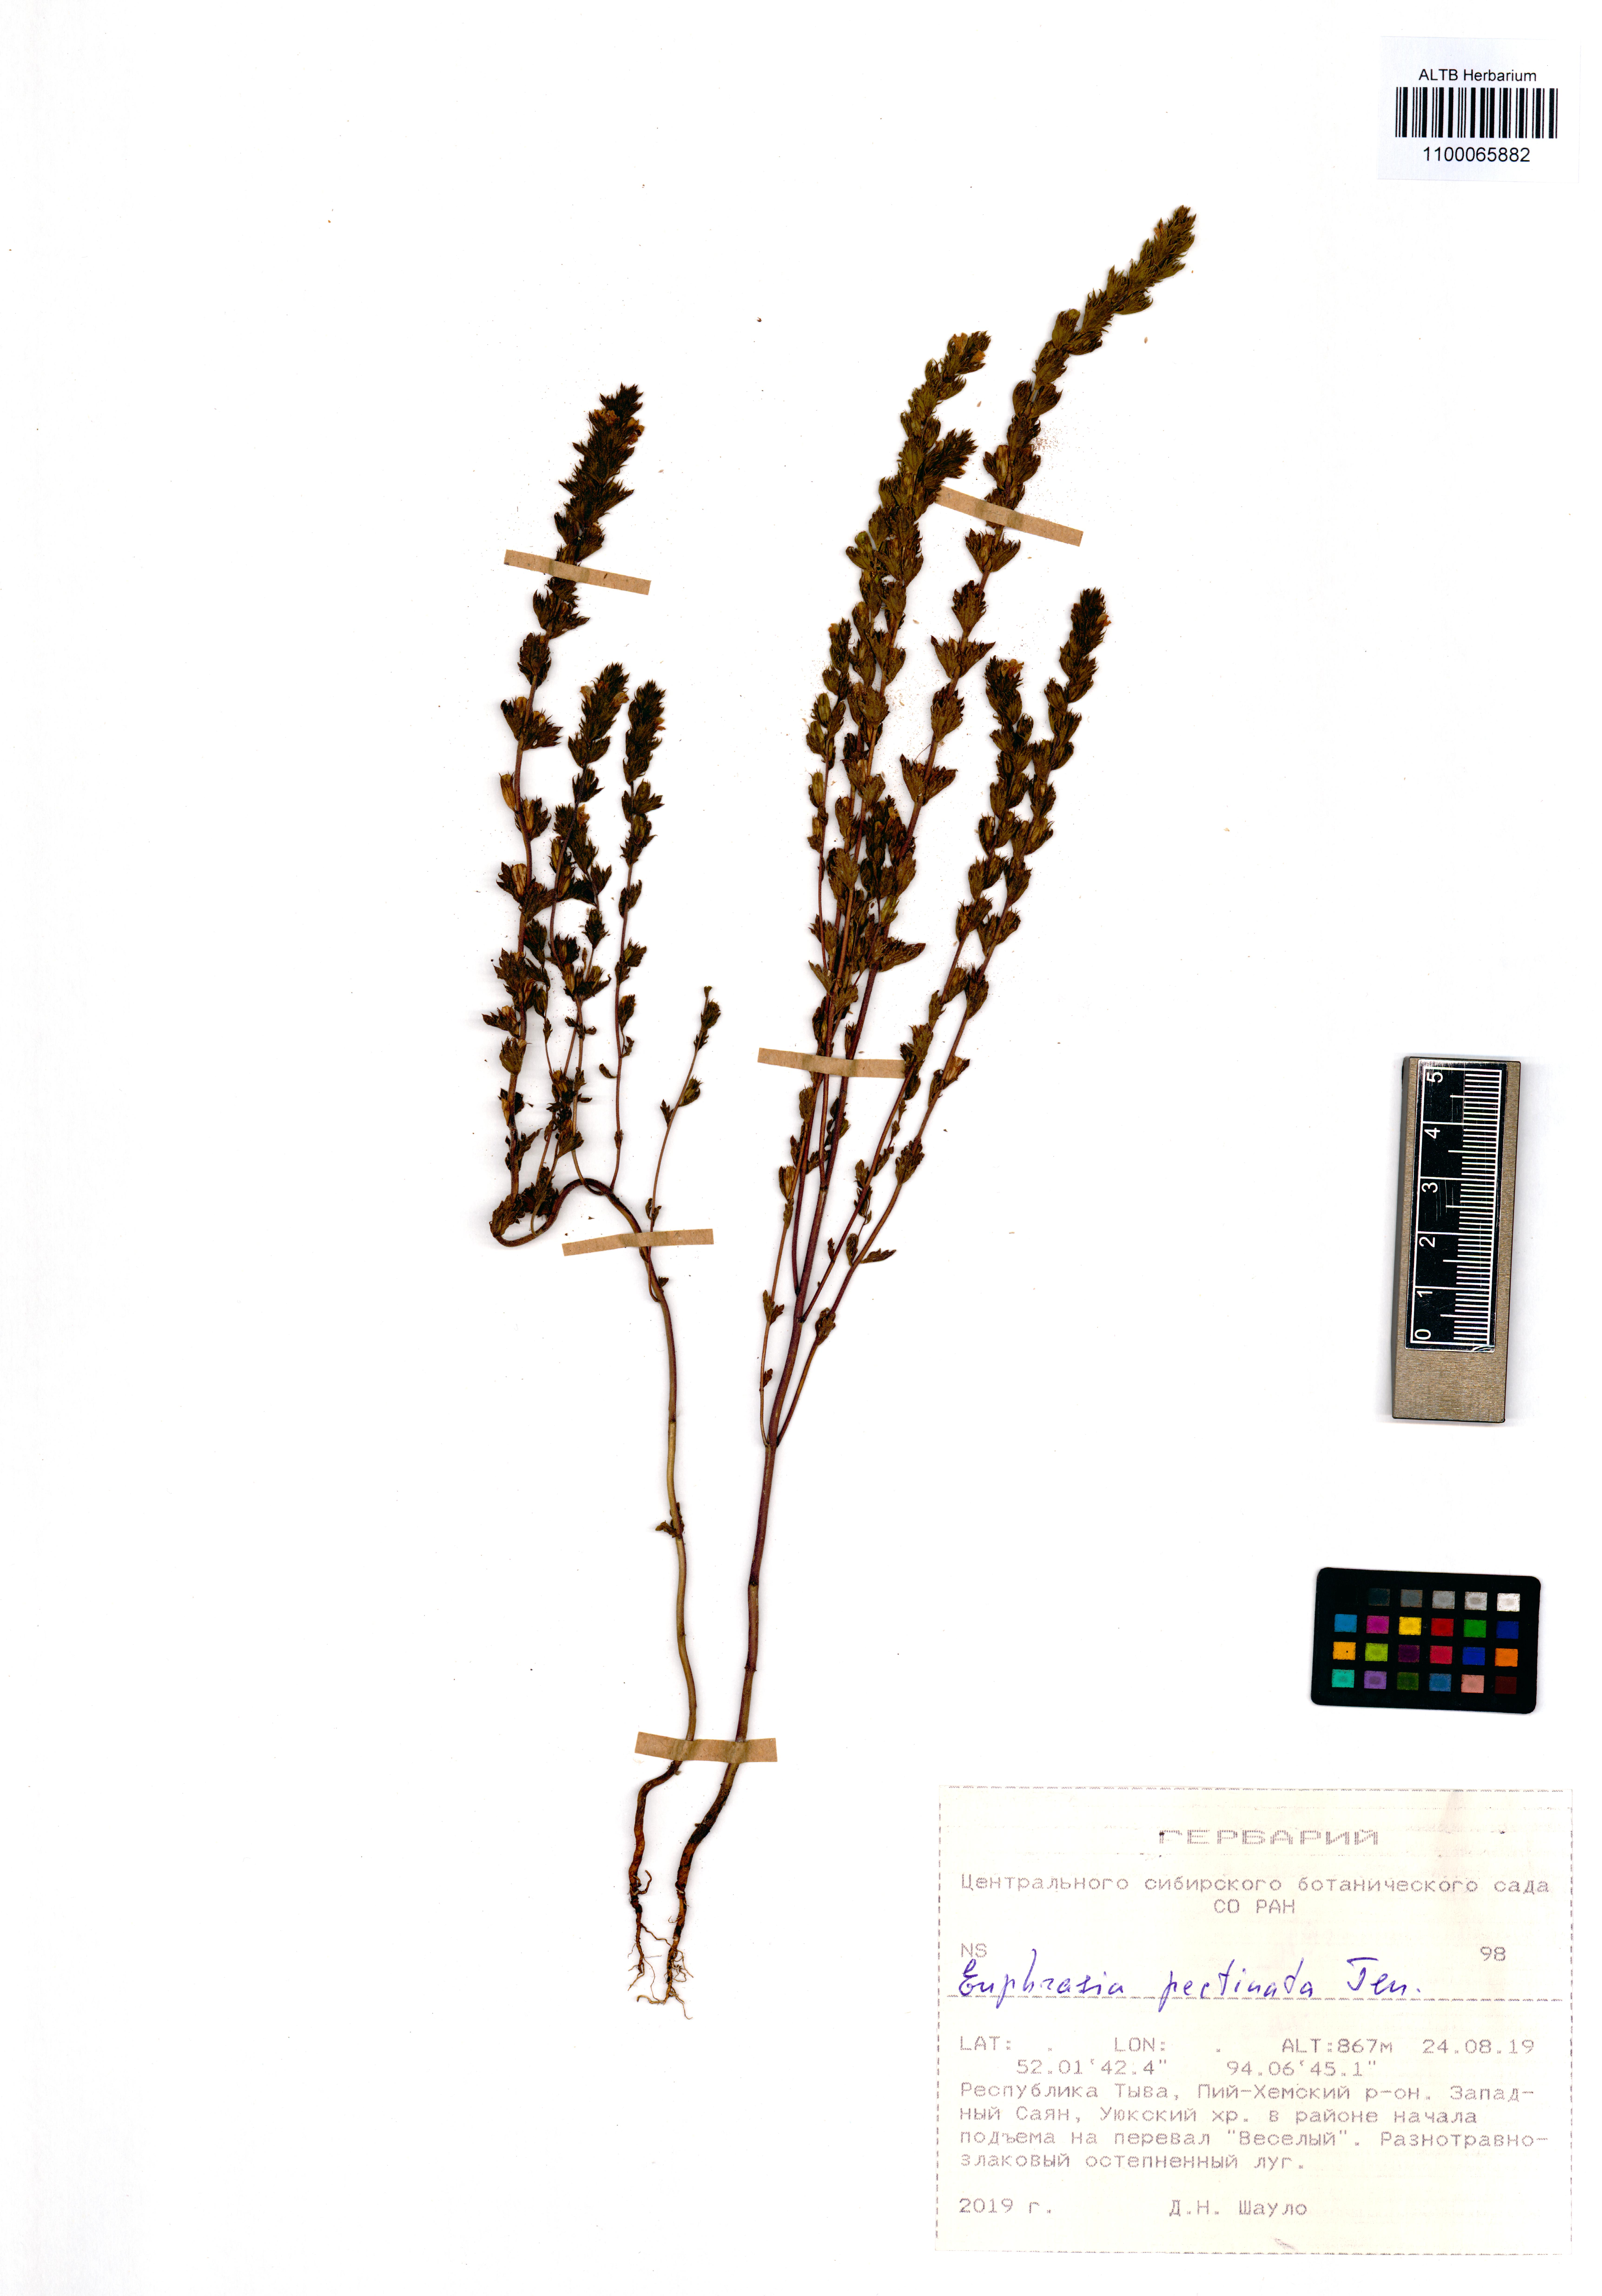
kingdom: Plantae
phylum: Tracheophyta
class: Magnoliopsida
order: Lamiales
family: Orobanchaceae
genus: Euphrasia
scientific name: Euphrasia pectinata
